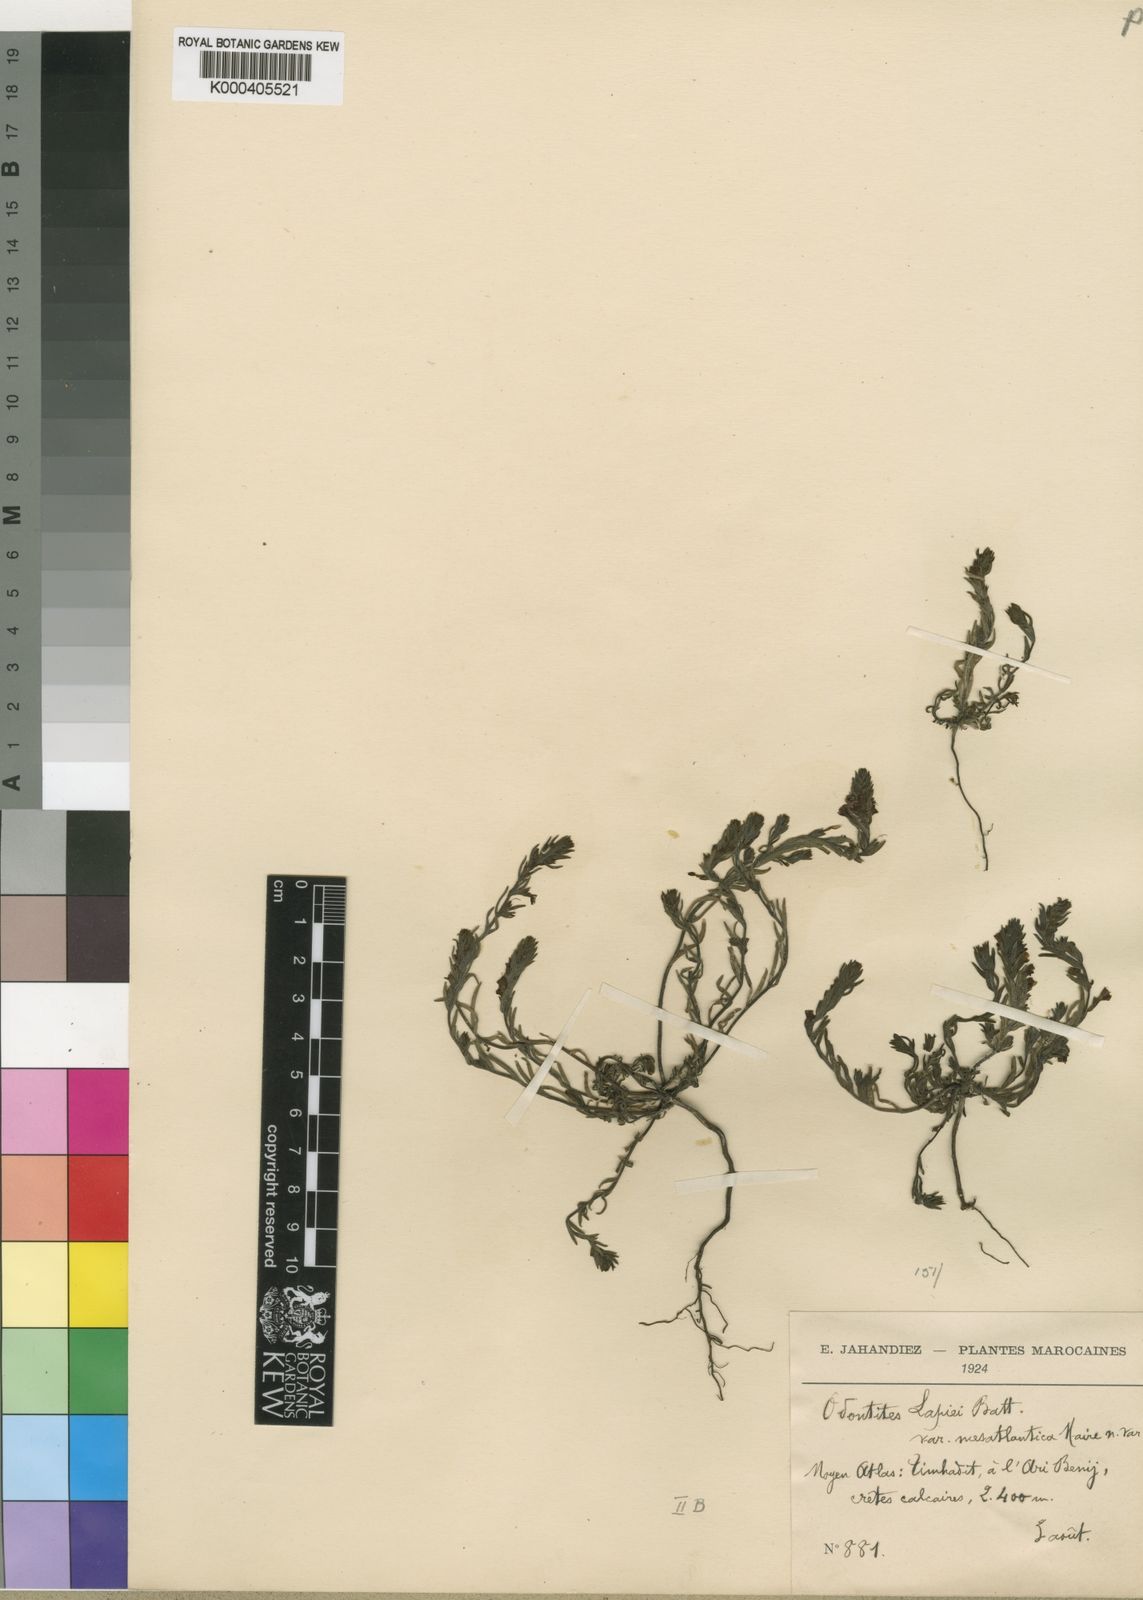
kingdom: Plantae
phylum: Tracheophyta
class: Magnoliopsida
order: Lamiales
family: Orobanchaceae
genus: Odontites
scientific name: Odontites lapiei
